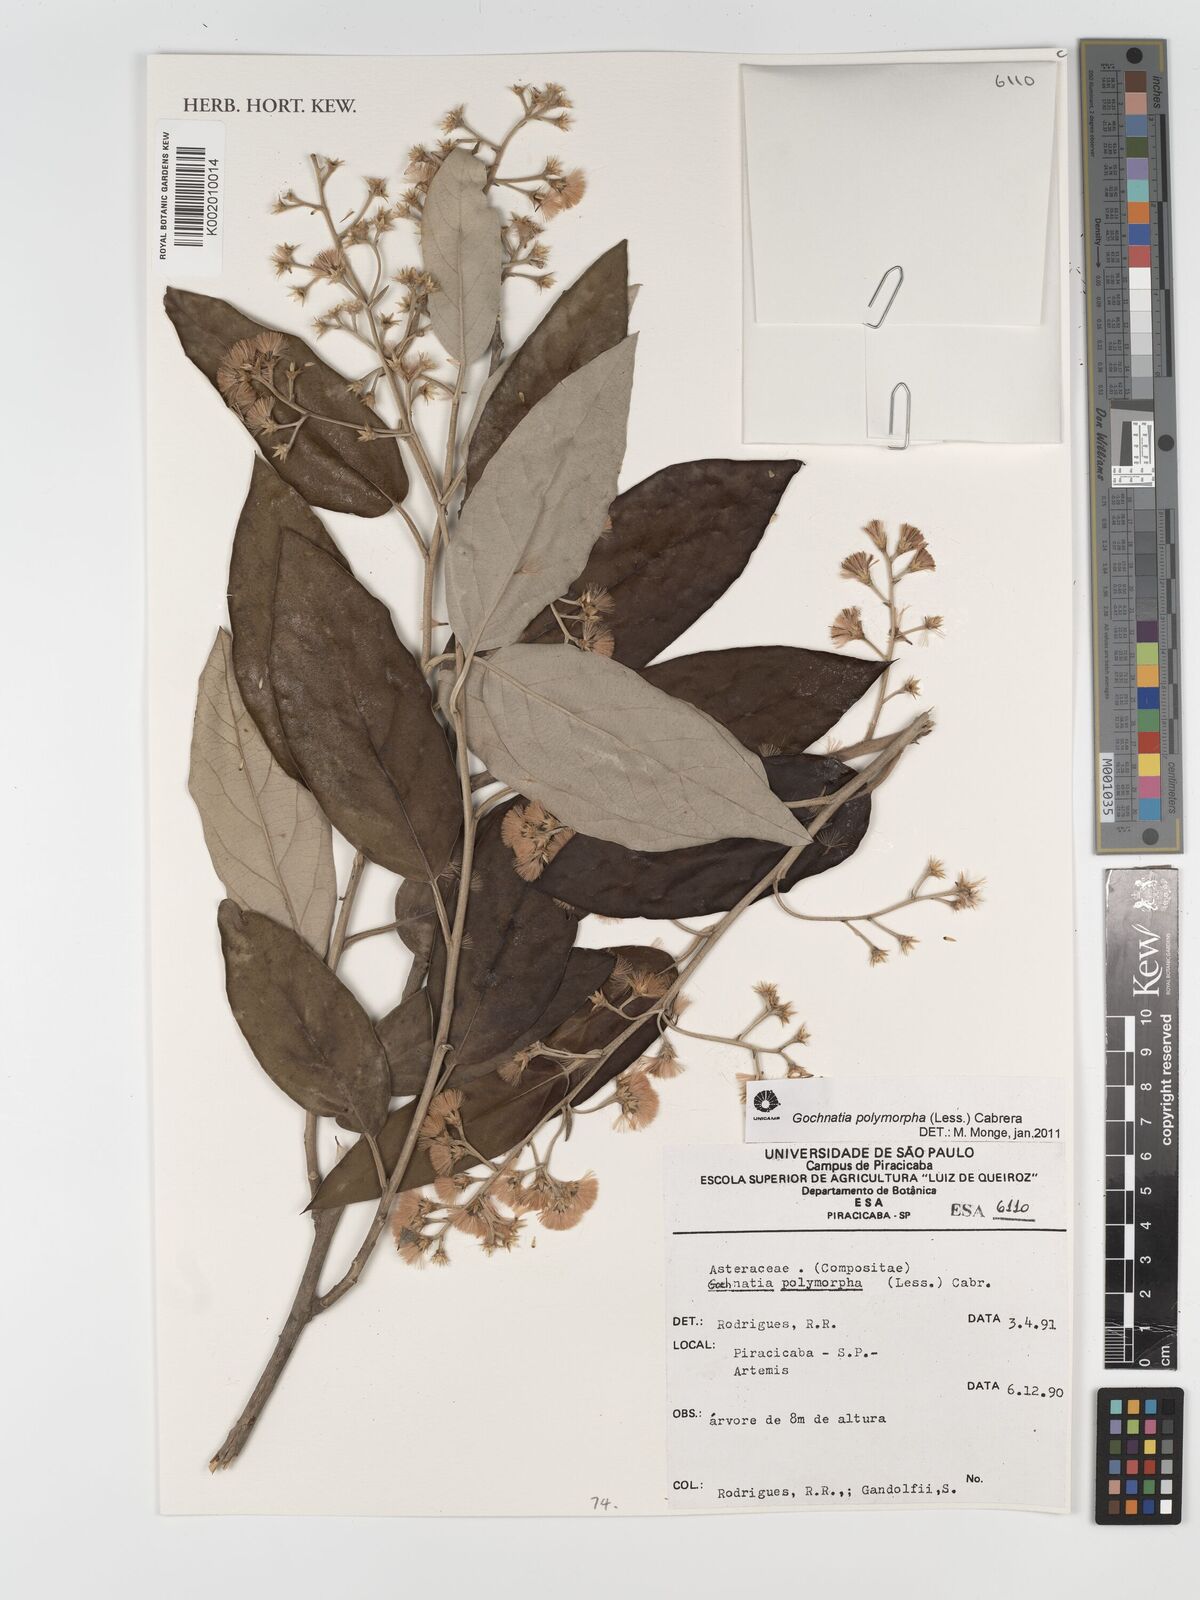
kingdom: Plantae
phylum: Tracheophyta
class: Magnoliopsida
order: Asterales
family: Asteraceae
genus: Moquiniastrum
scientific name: Moquiniastrum polymorphum
